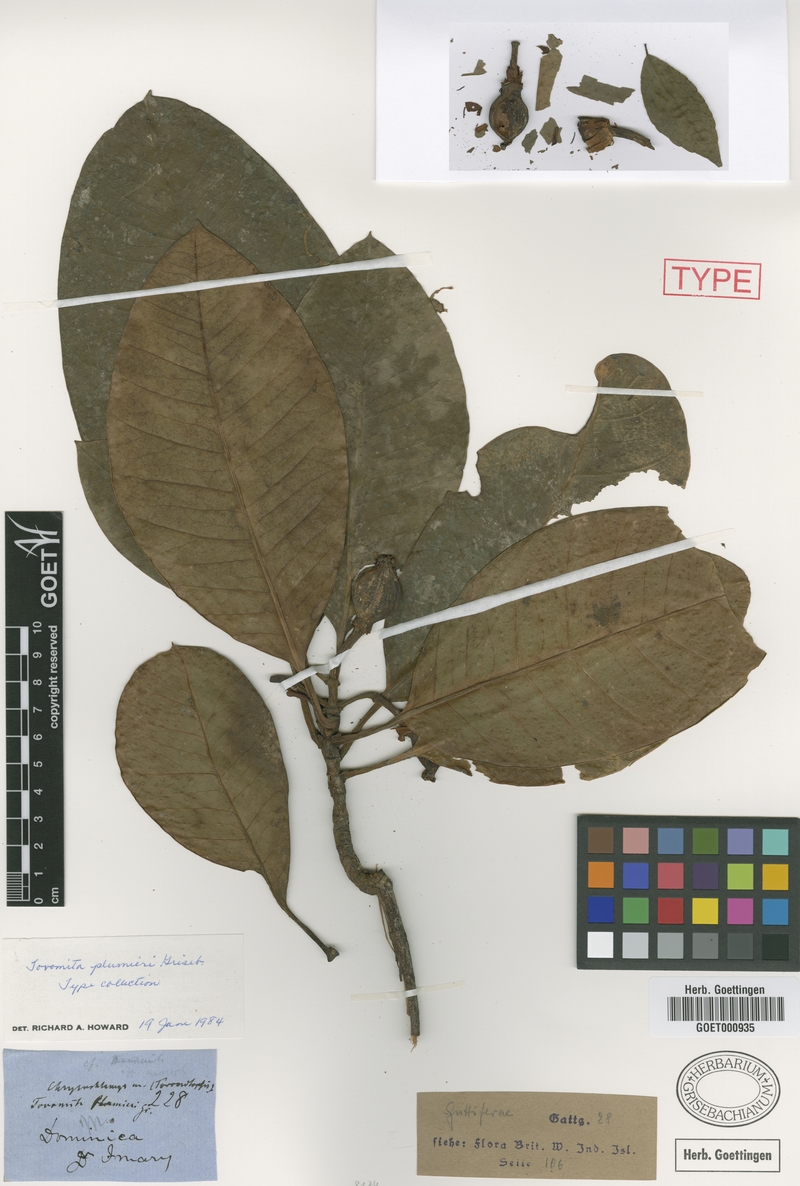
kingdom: Plantae
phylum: Tracheophyta
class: Magnoliopsida
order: Malpighiales
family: Clusiaceae
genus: Tovomita
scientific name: Tovomita plumieri
